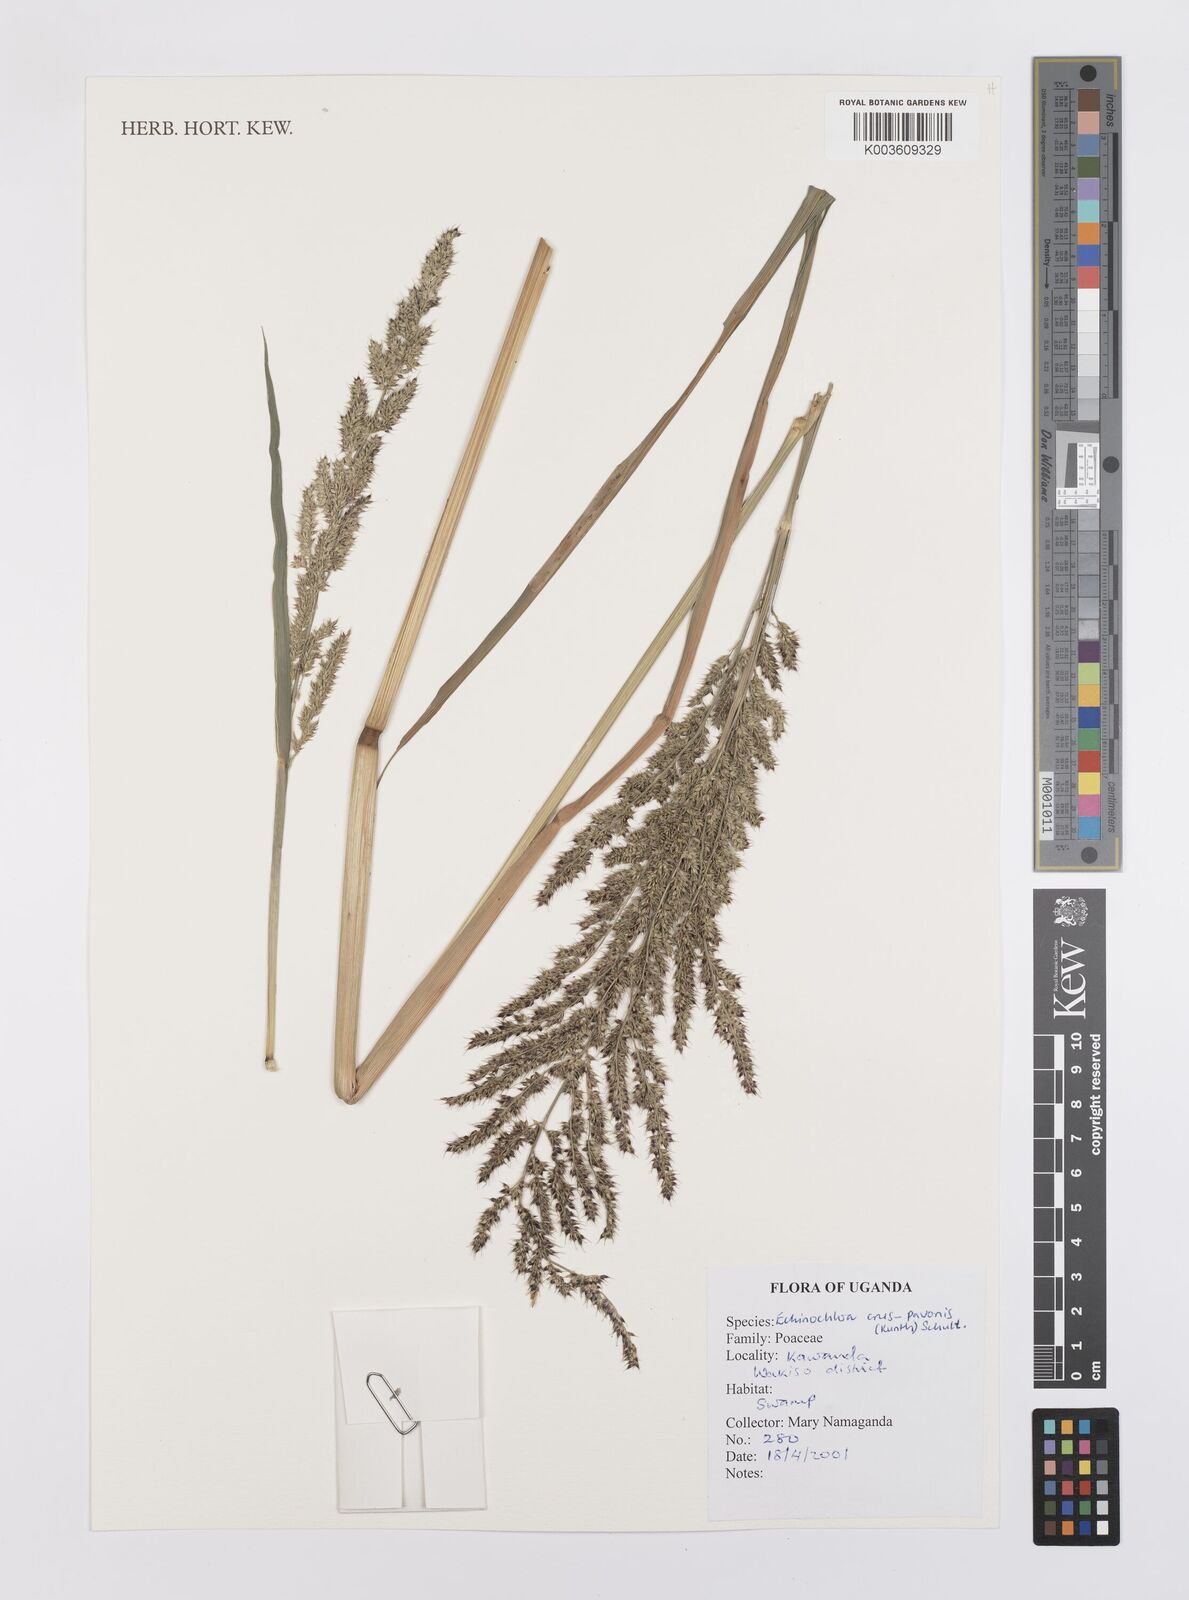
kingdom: Plantae
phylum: Tracheophyta
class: Liliopsida
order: Poales
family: Poaceae
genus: Echinochloa
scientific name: Echinochloa crus-pavonis
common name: Gulf cockspur grass
